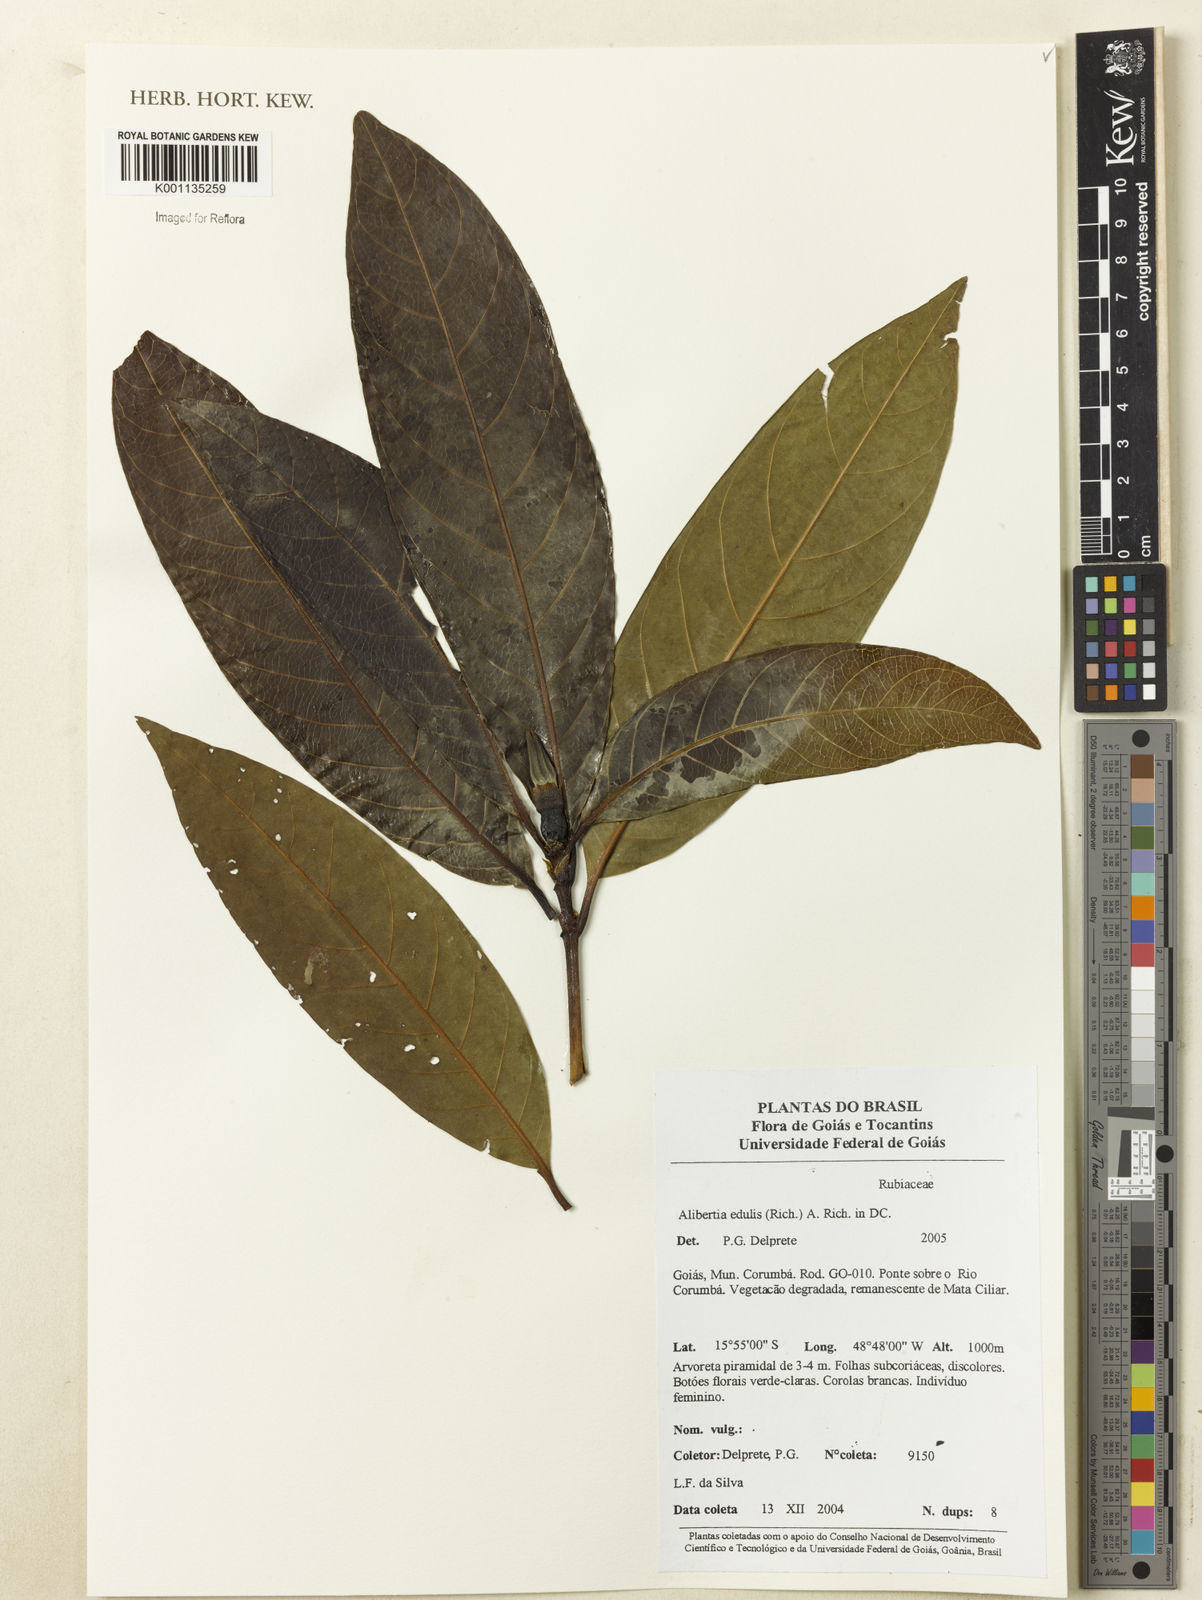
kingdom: Plantae
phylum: Tracheophyta
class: Magnoliopsida
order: Gentianales
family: Rubiaceae
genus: Alibertia
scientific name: Alibertia edulis
